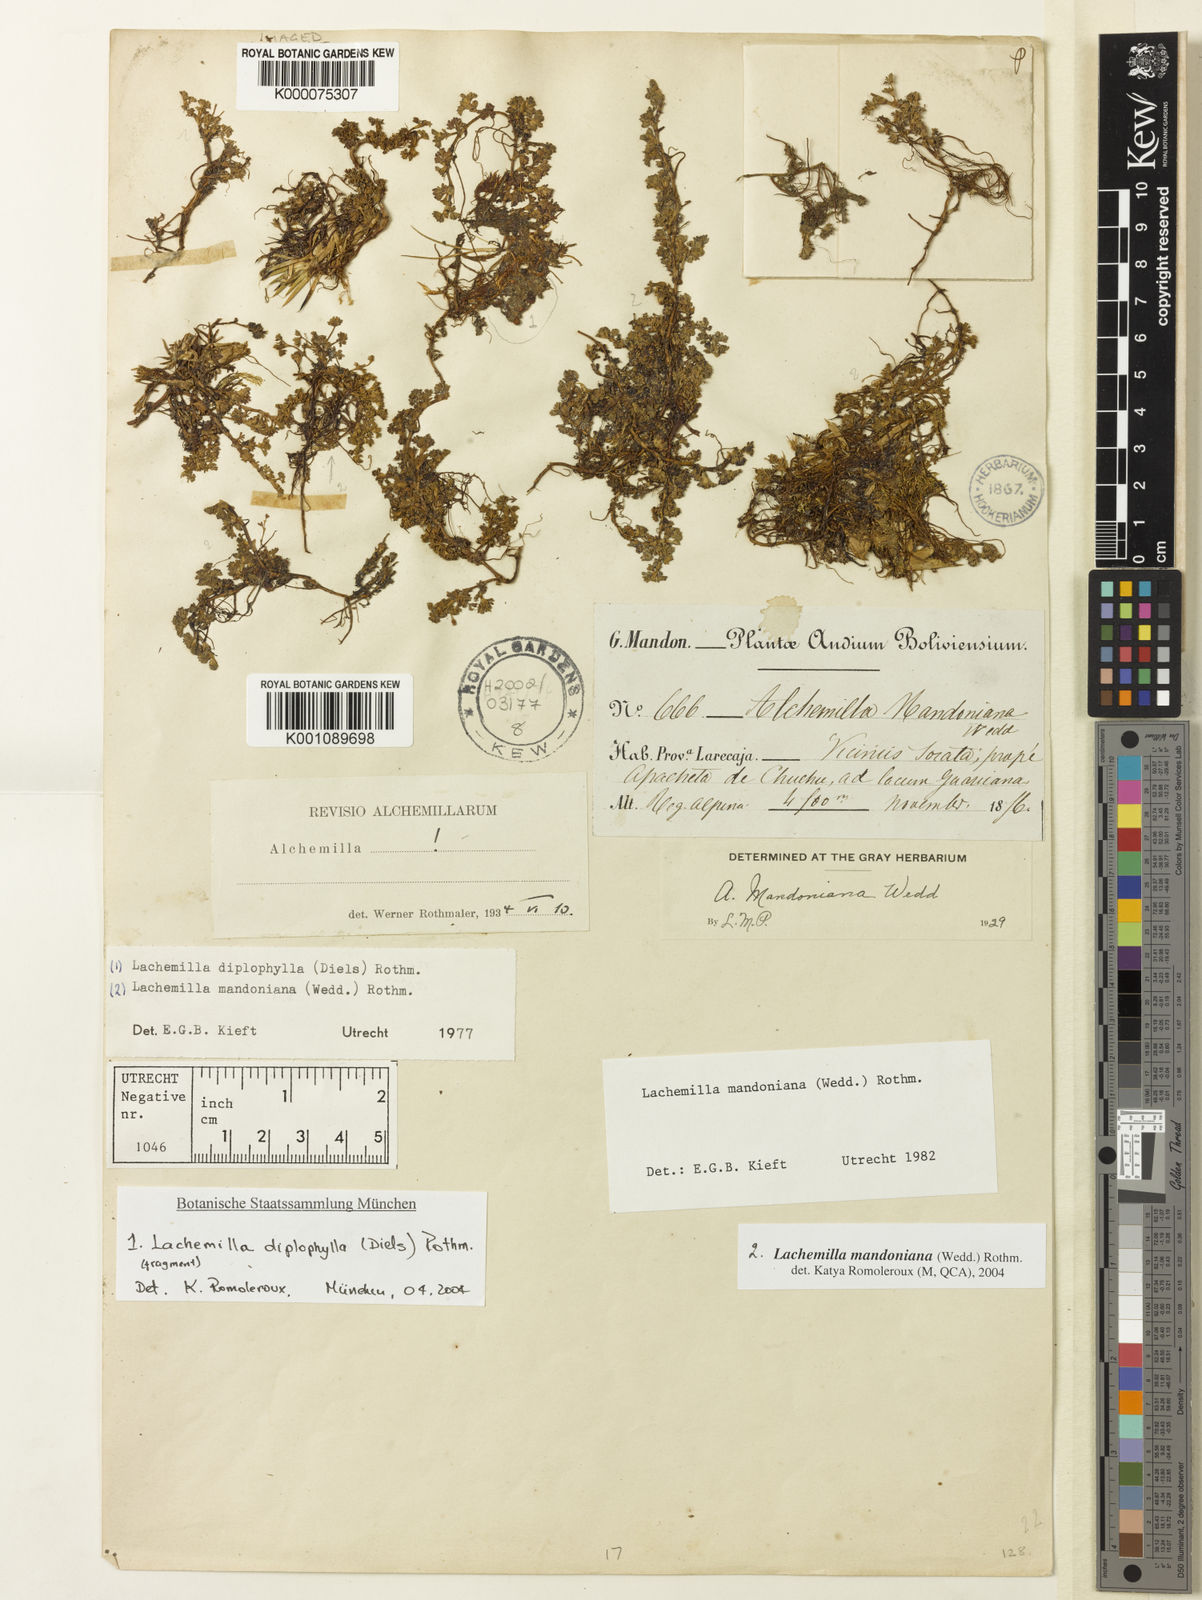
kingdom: Plantae
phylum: Tracheophyta
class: Magnoliopsida
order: Rosales
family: Rosaceae
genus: Lachemilla
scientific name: Lachemilla mandoniana
